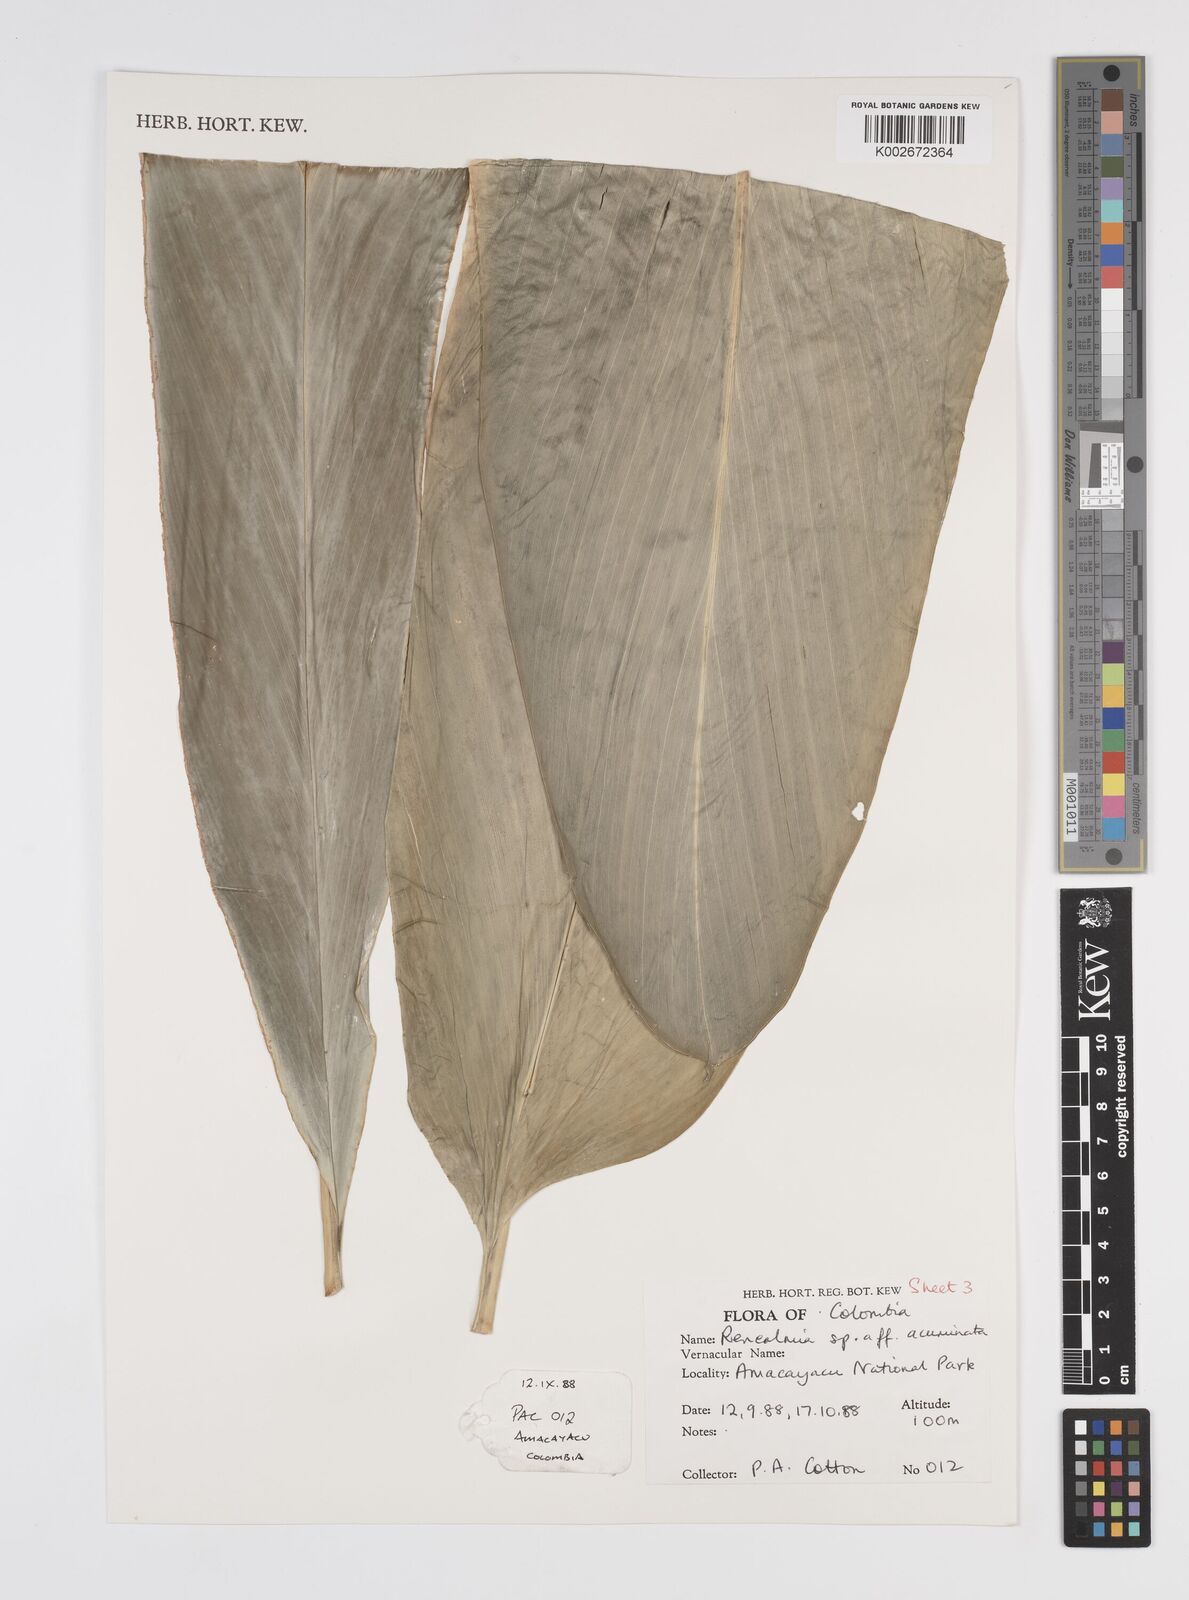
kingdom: Plantae
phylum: Tracheophyta
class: Liliopsida
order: Zingiberales
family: Zingiberaceae
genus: Renealmia
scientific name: Renealmia thyrsoidea
